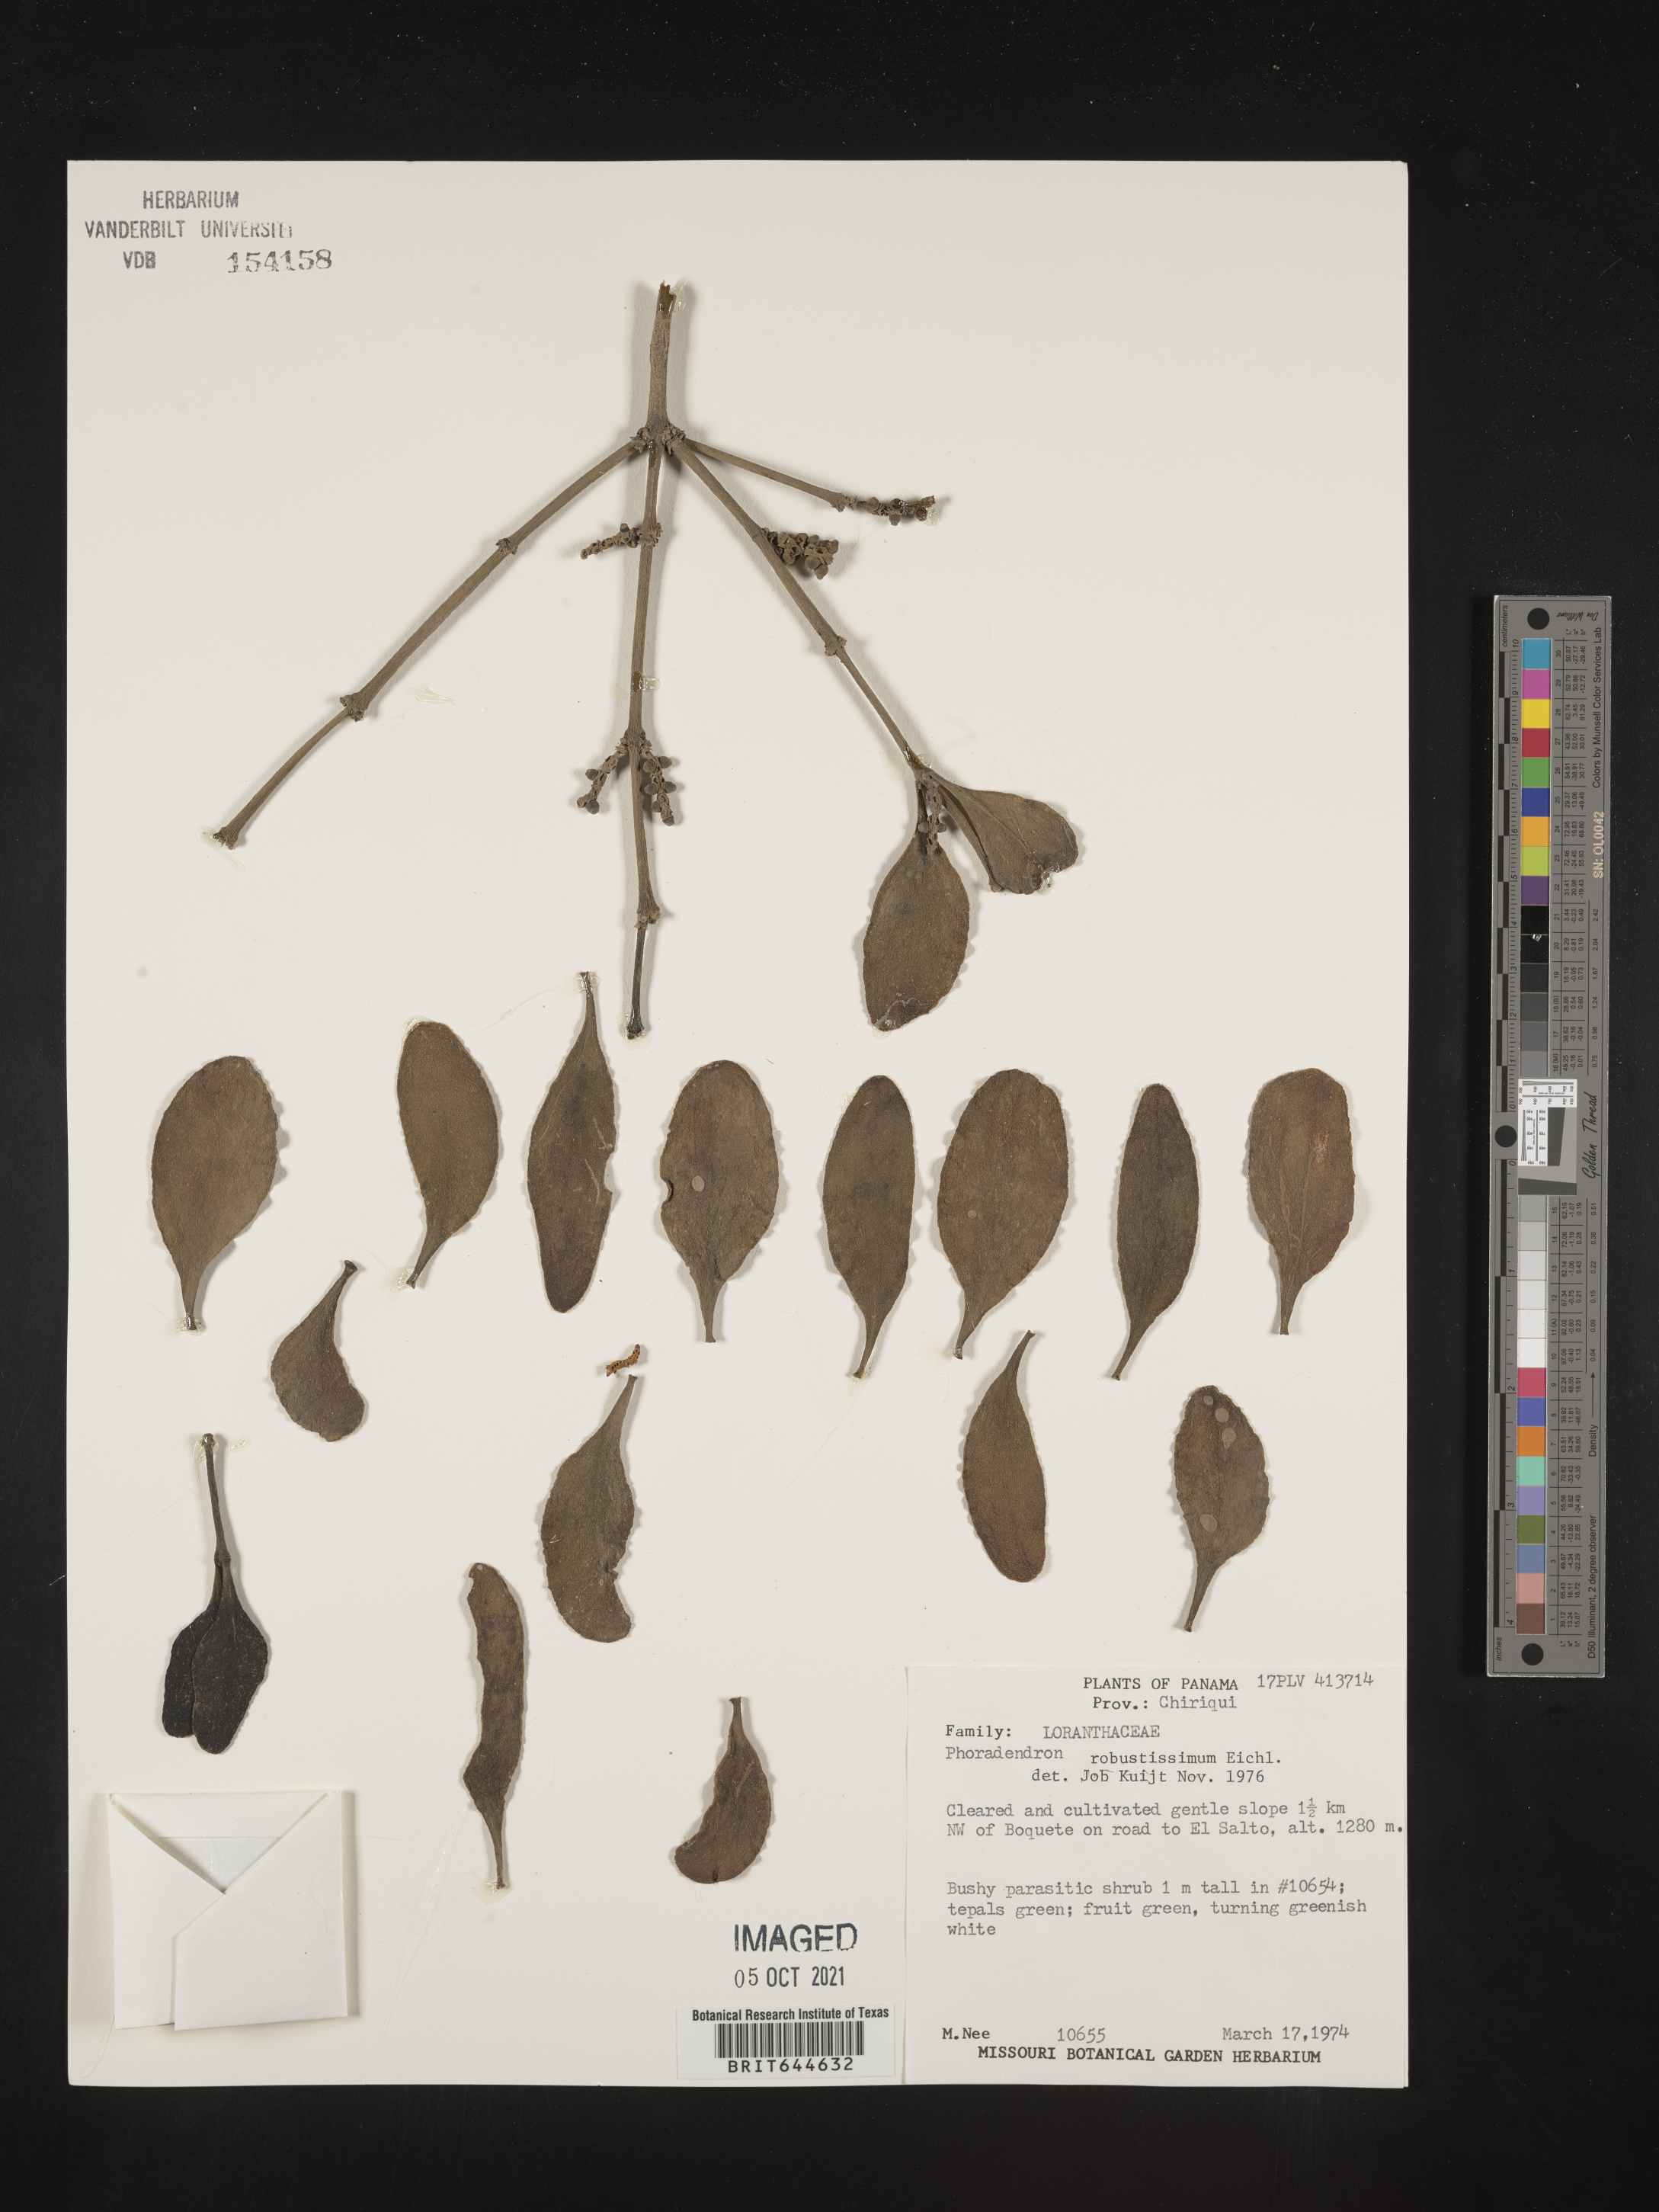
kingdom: Plantae
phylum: Tracheophyta
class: Magnoliopsida
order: Santalales
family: Viscaceae
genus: Phoradendron
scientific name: Phoradendron
